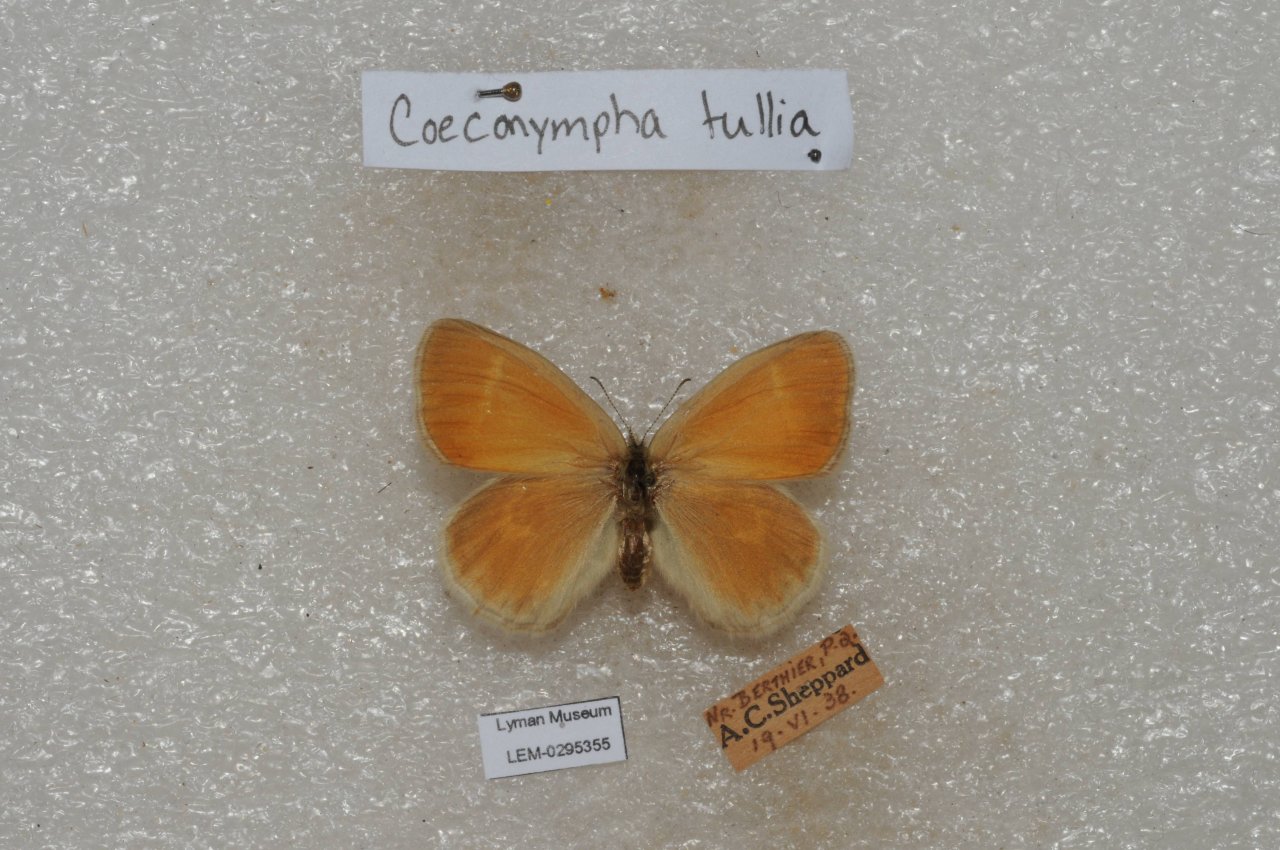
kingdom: Animalia
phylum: Arthropoda
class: Insecta
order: Lepidoptera
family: Nymphalidae
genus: Coenonympha
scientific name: Coenonympha tullia
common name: Large Heath
